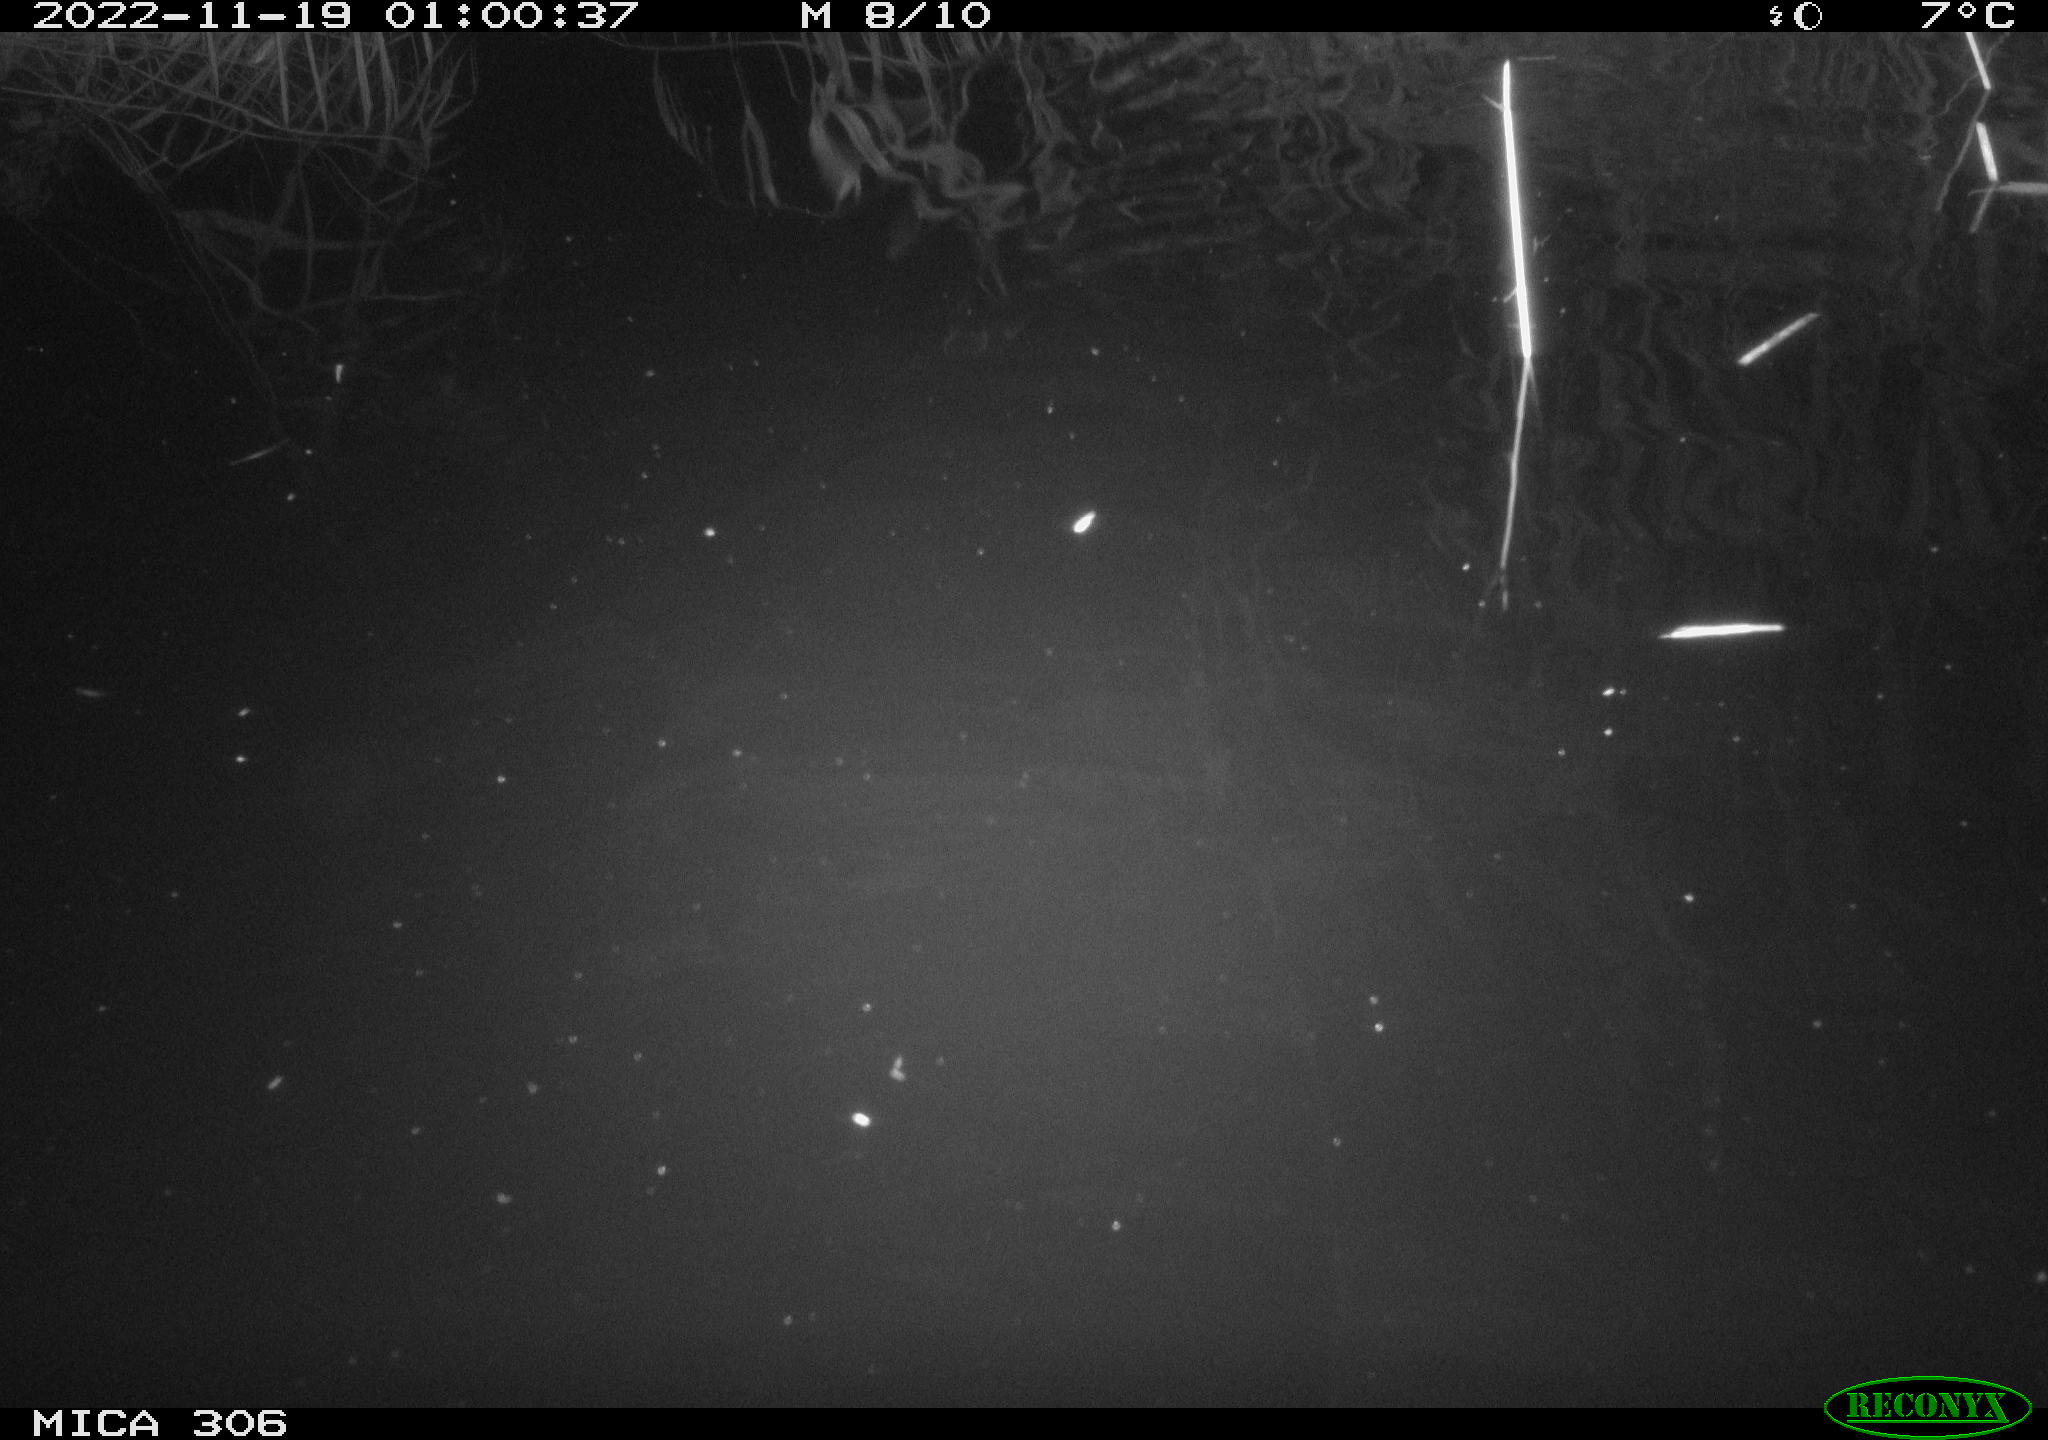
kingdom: Animalia
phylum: Chordata
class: Mammalia
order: Rodentia
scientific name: Rodentia
